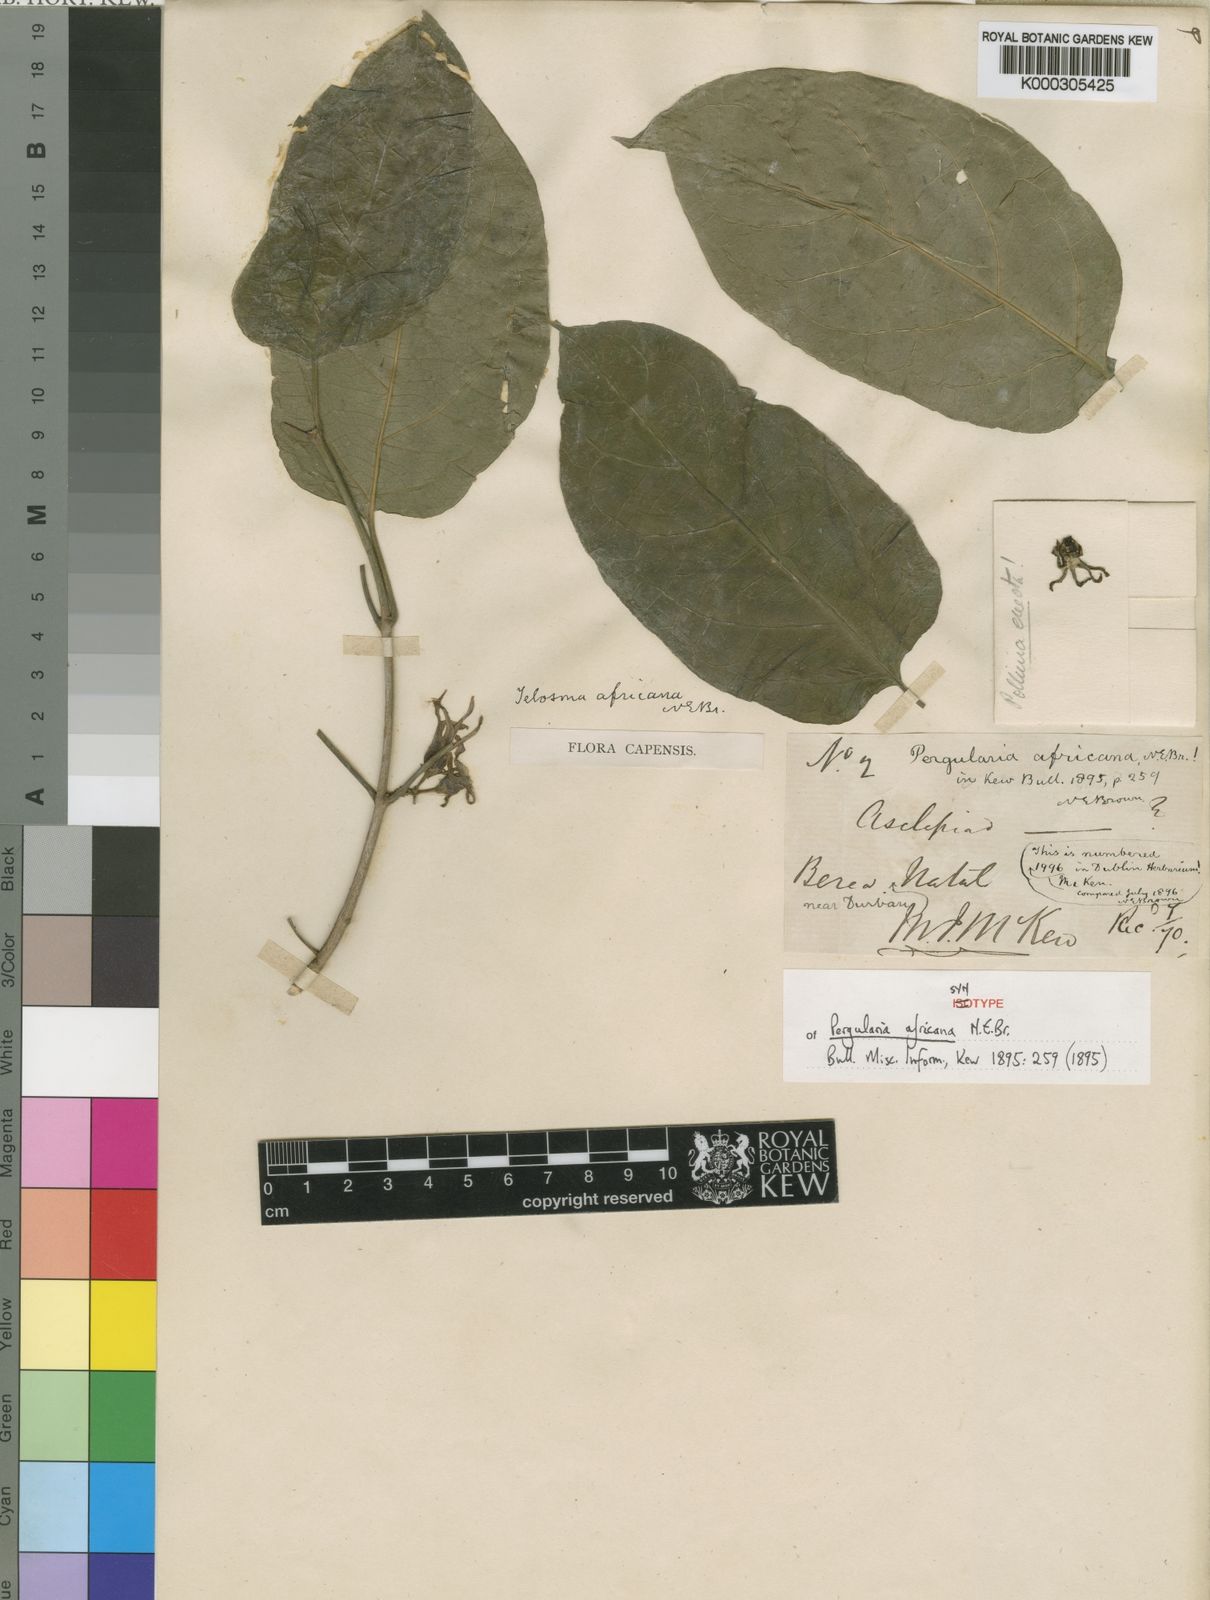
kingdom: Plantae
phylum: Tracheophyta
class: Magnoliopsida
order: Gentianales
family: Apocynaceae
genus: Telosma
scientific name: Telosma africana
